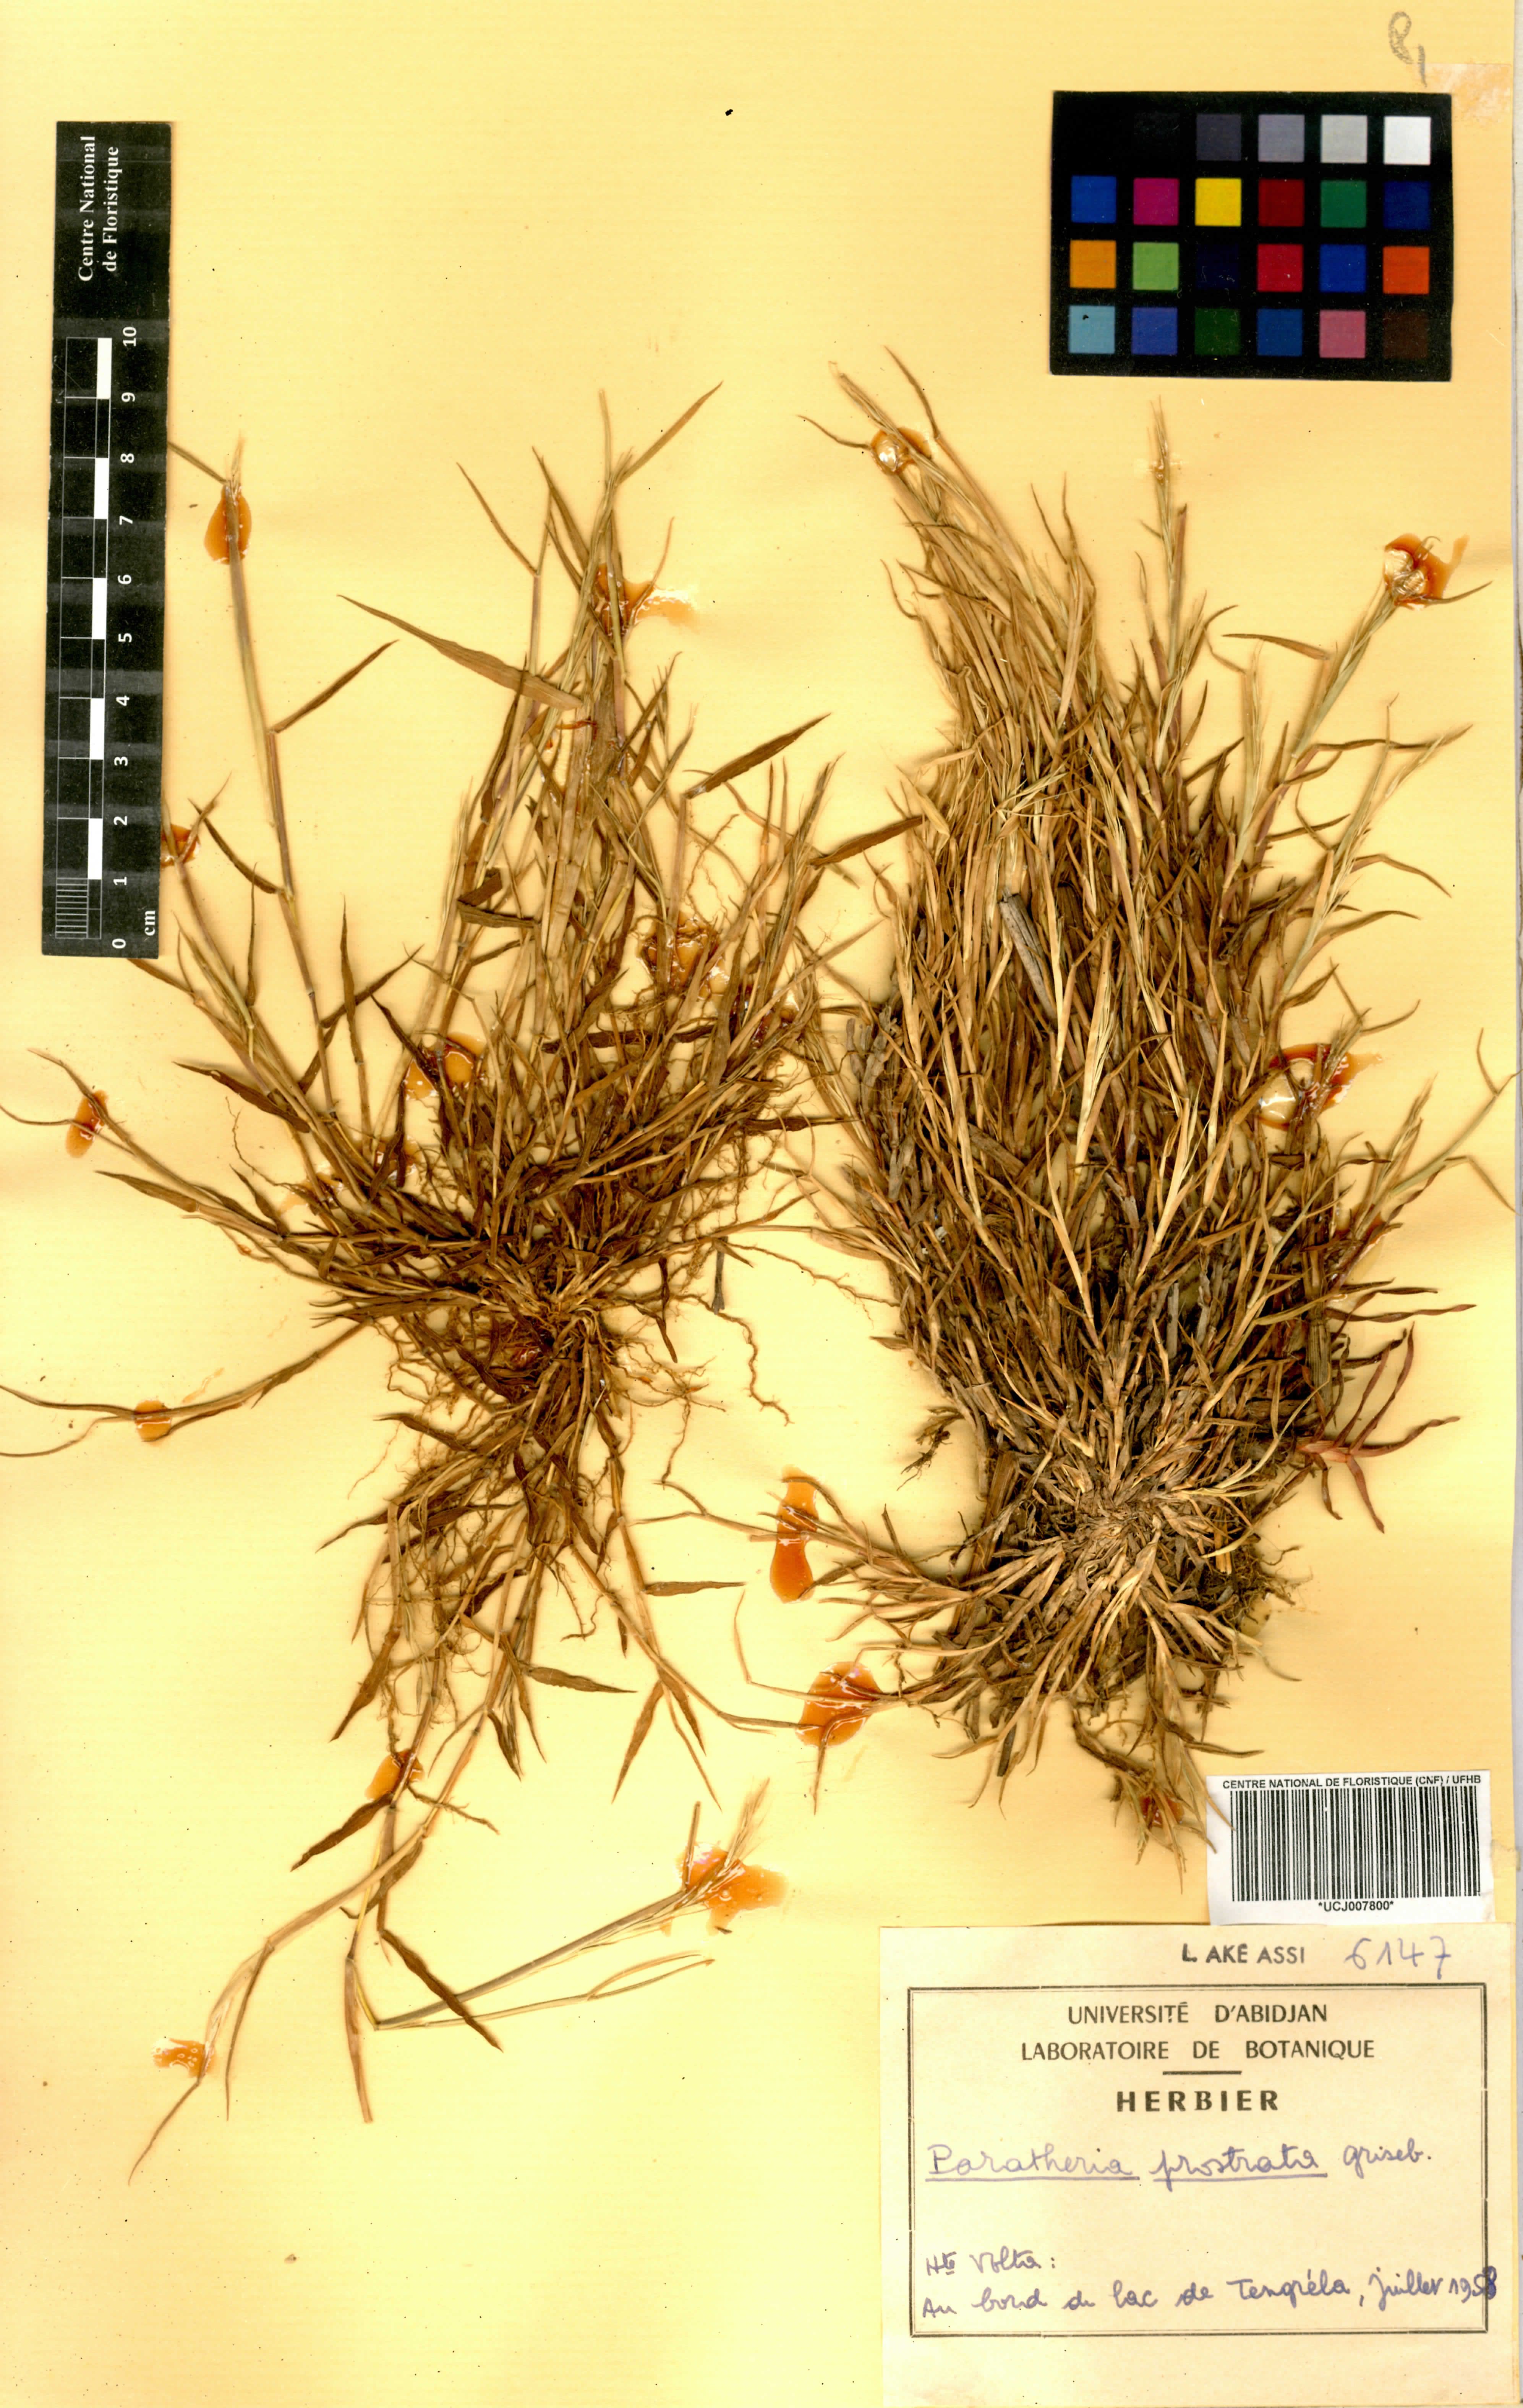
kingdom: Plantae
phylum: Tracheophyta
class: Liliopsida
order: Poales
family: Poaceae
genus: Paratheria
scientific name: Paratheria prostrata
